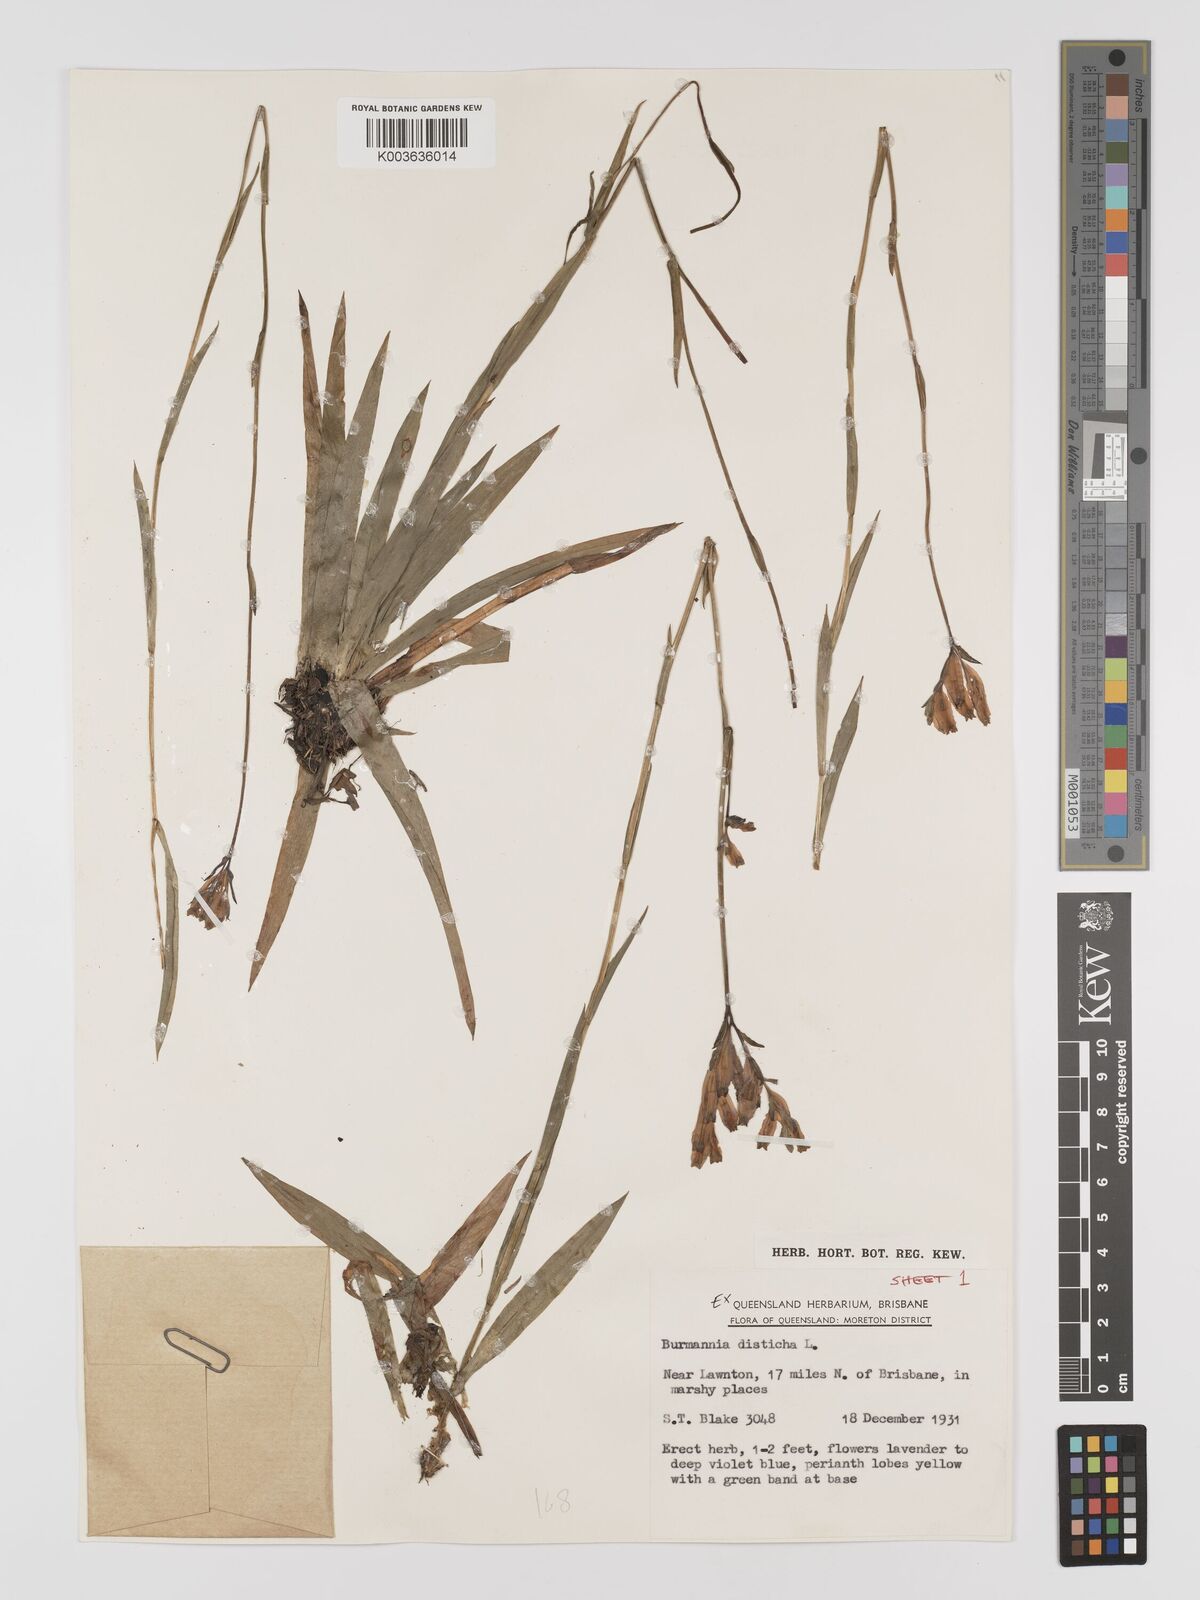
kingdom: Plantae
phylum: Tracheophyta
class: Liliopsida
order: Dioscoreales
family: Burmanniaceae
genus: Burmannia
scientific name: Burmannia disticha
